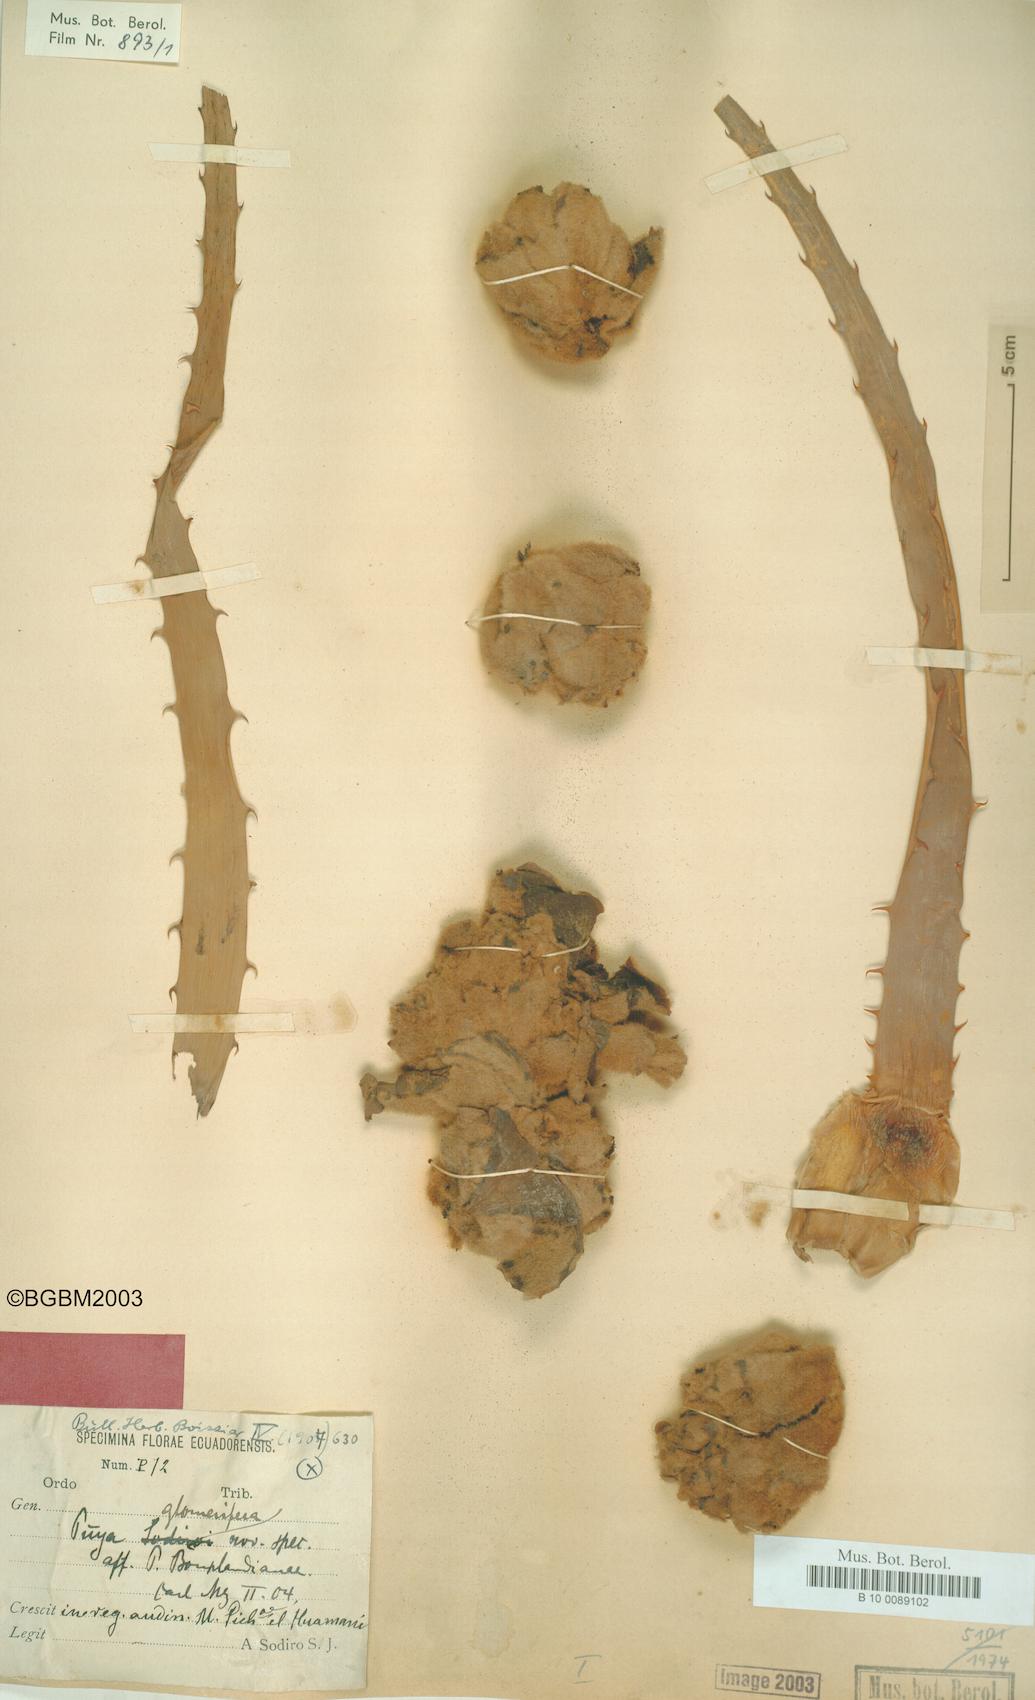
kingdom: Plantae
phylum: Tracheophyta
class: Liliopsida
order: Poales
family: Bromeliaceae
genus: Puya
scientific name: Puya glomerifera
